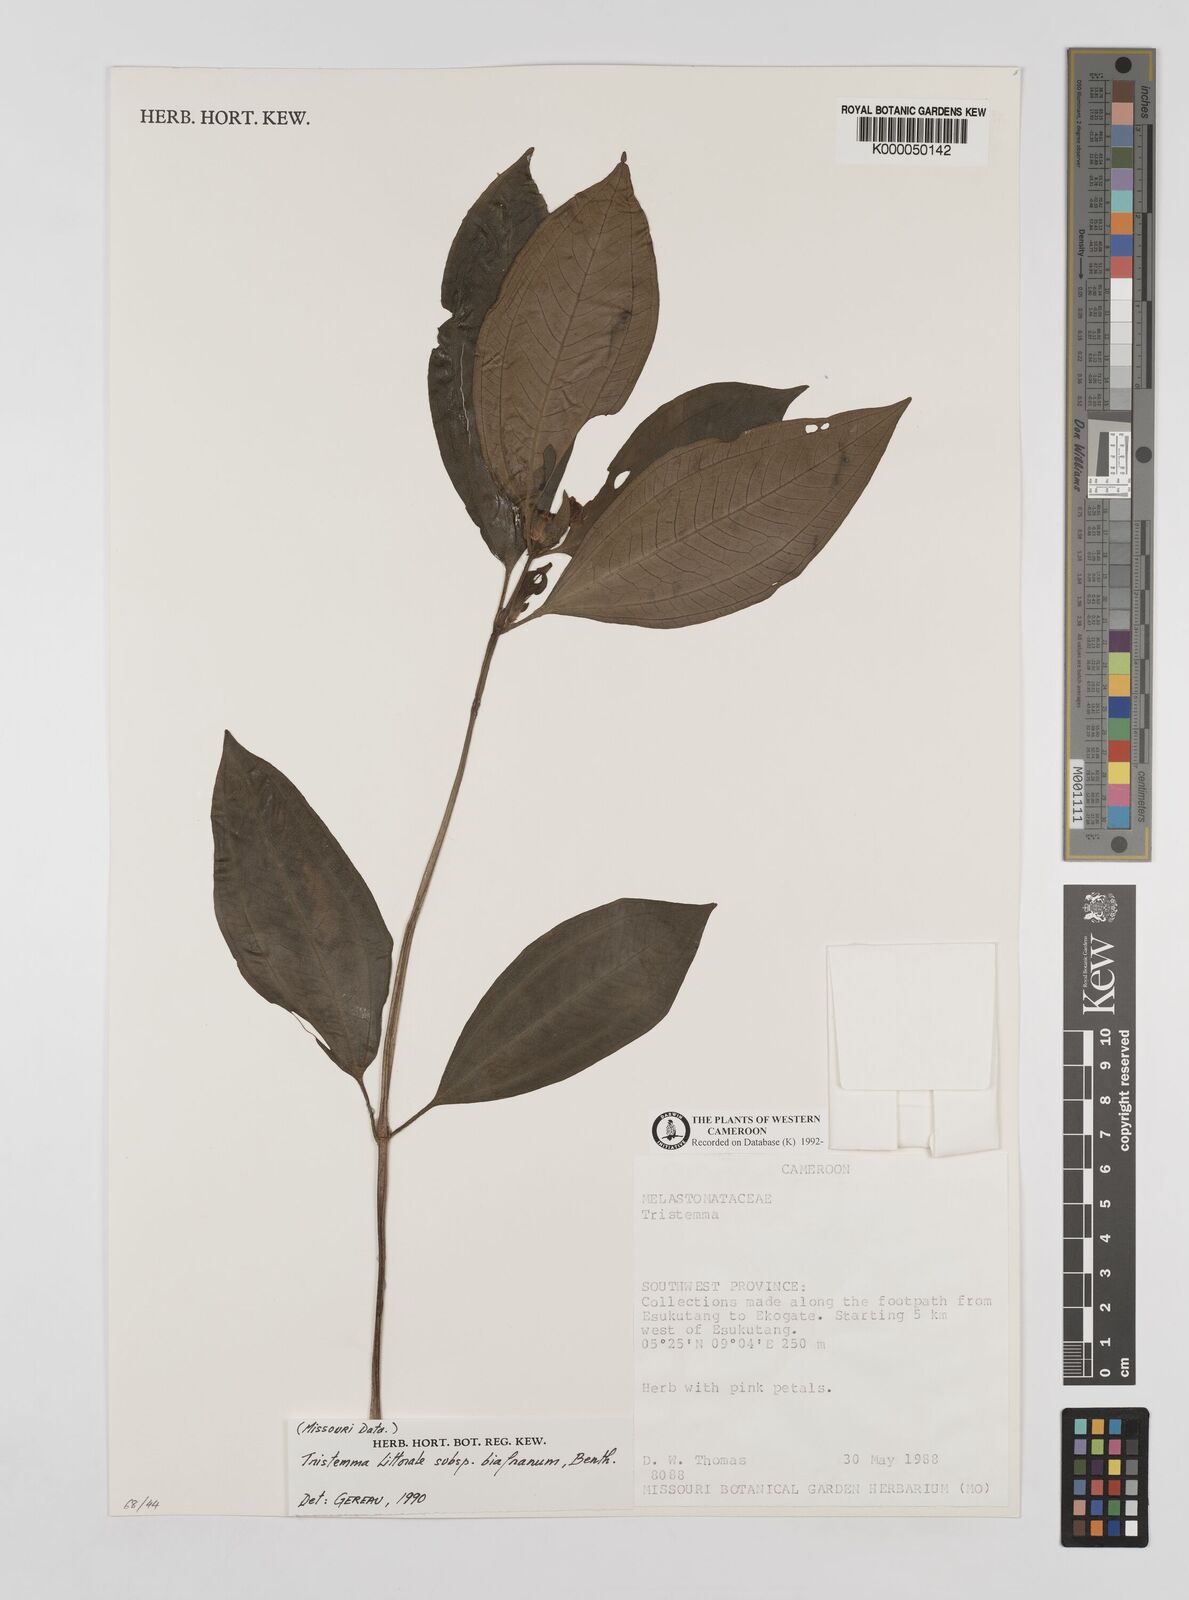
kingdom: Plantae
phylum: Tracheophyta
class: Magnoliopsida
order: Myrtales
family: Melastomataceae
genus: Tristemma
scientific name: Tristemma littorale
